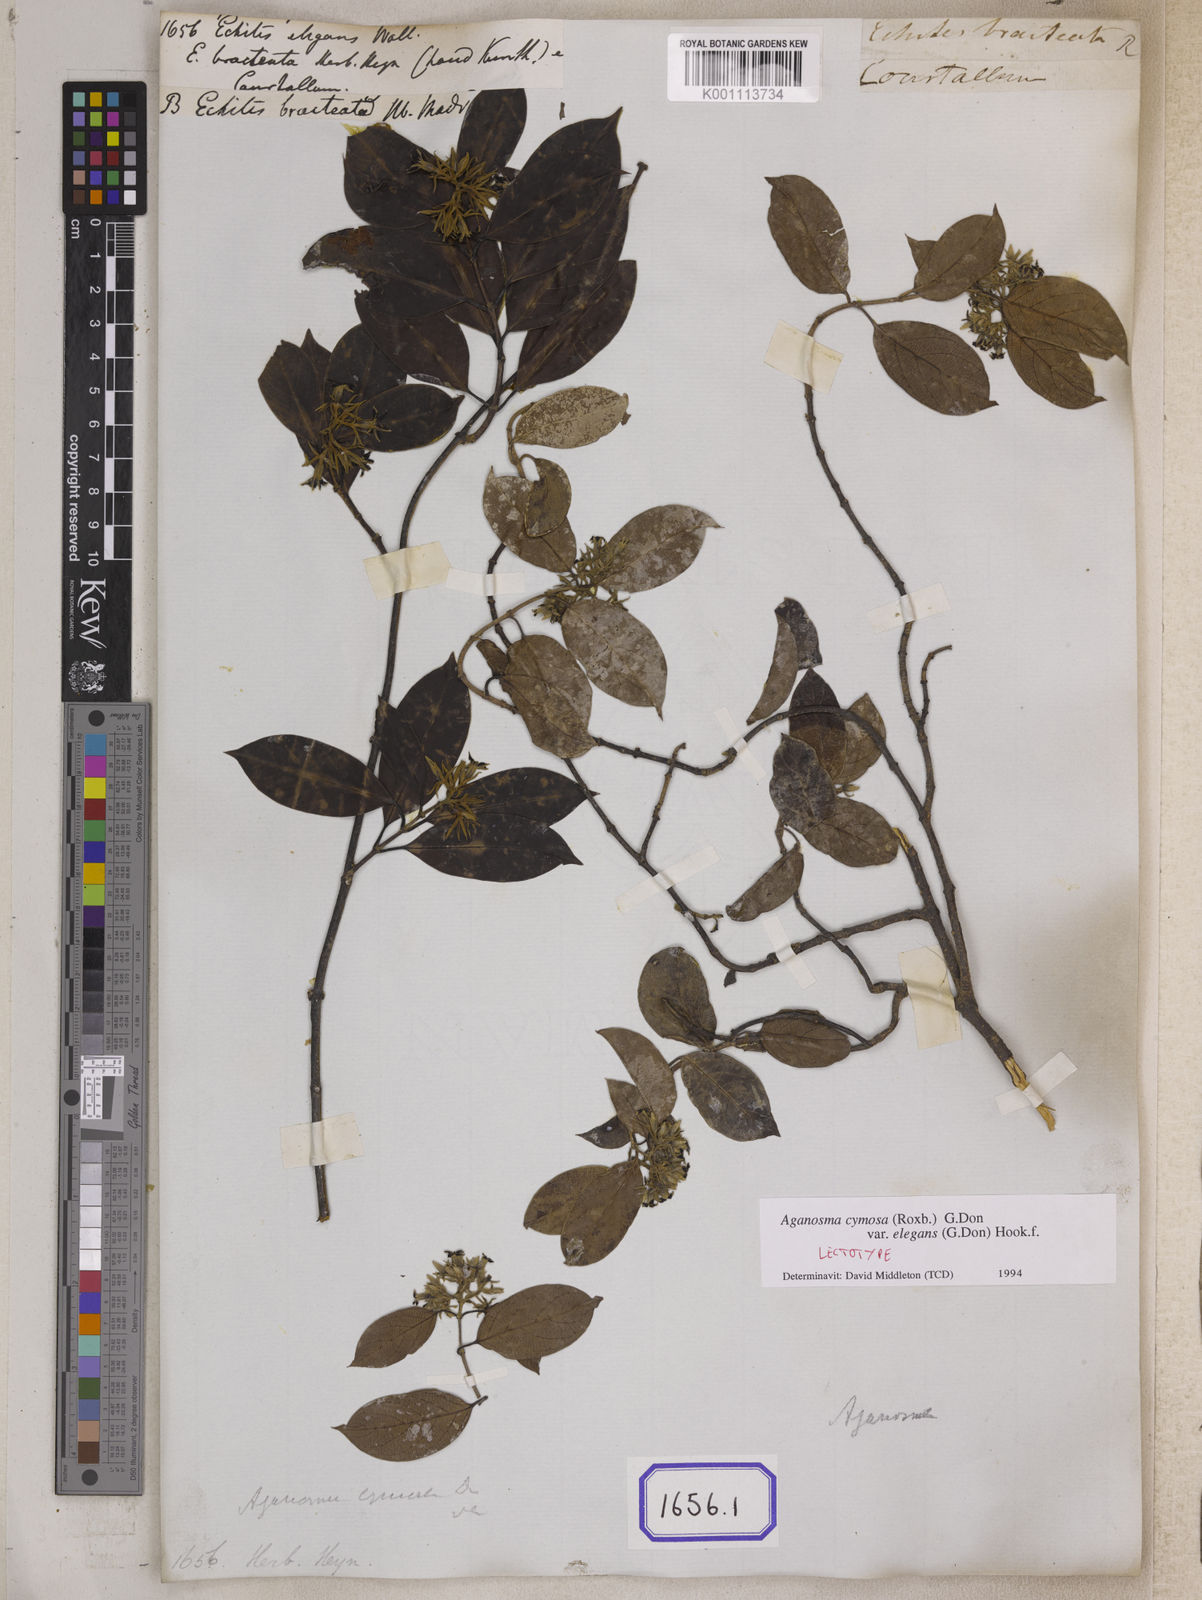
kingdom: Plantae
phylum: Tracheophyta
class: Magnoliopsida
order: Gentianales
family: Apocynaceae
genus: Chonemorpha
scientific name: Chonemorpha fragrans
